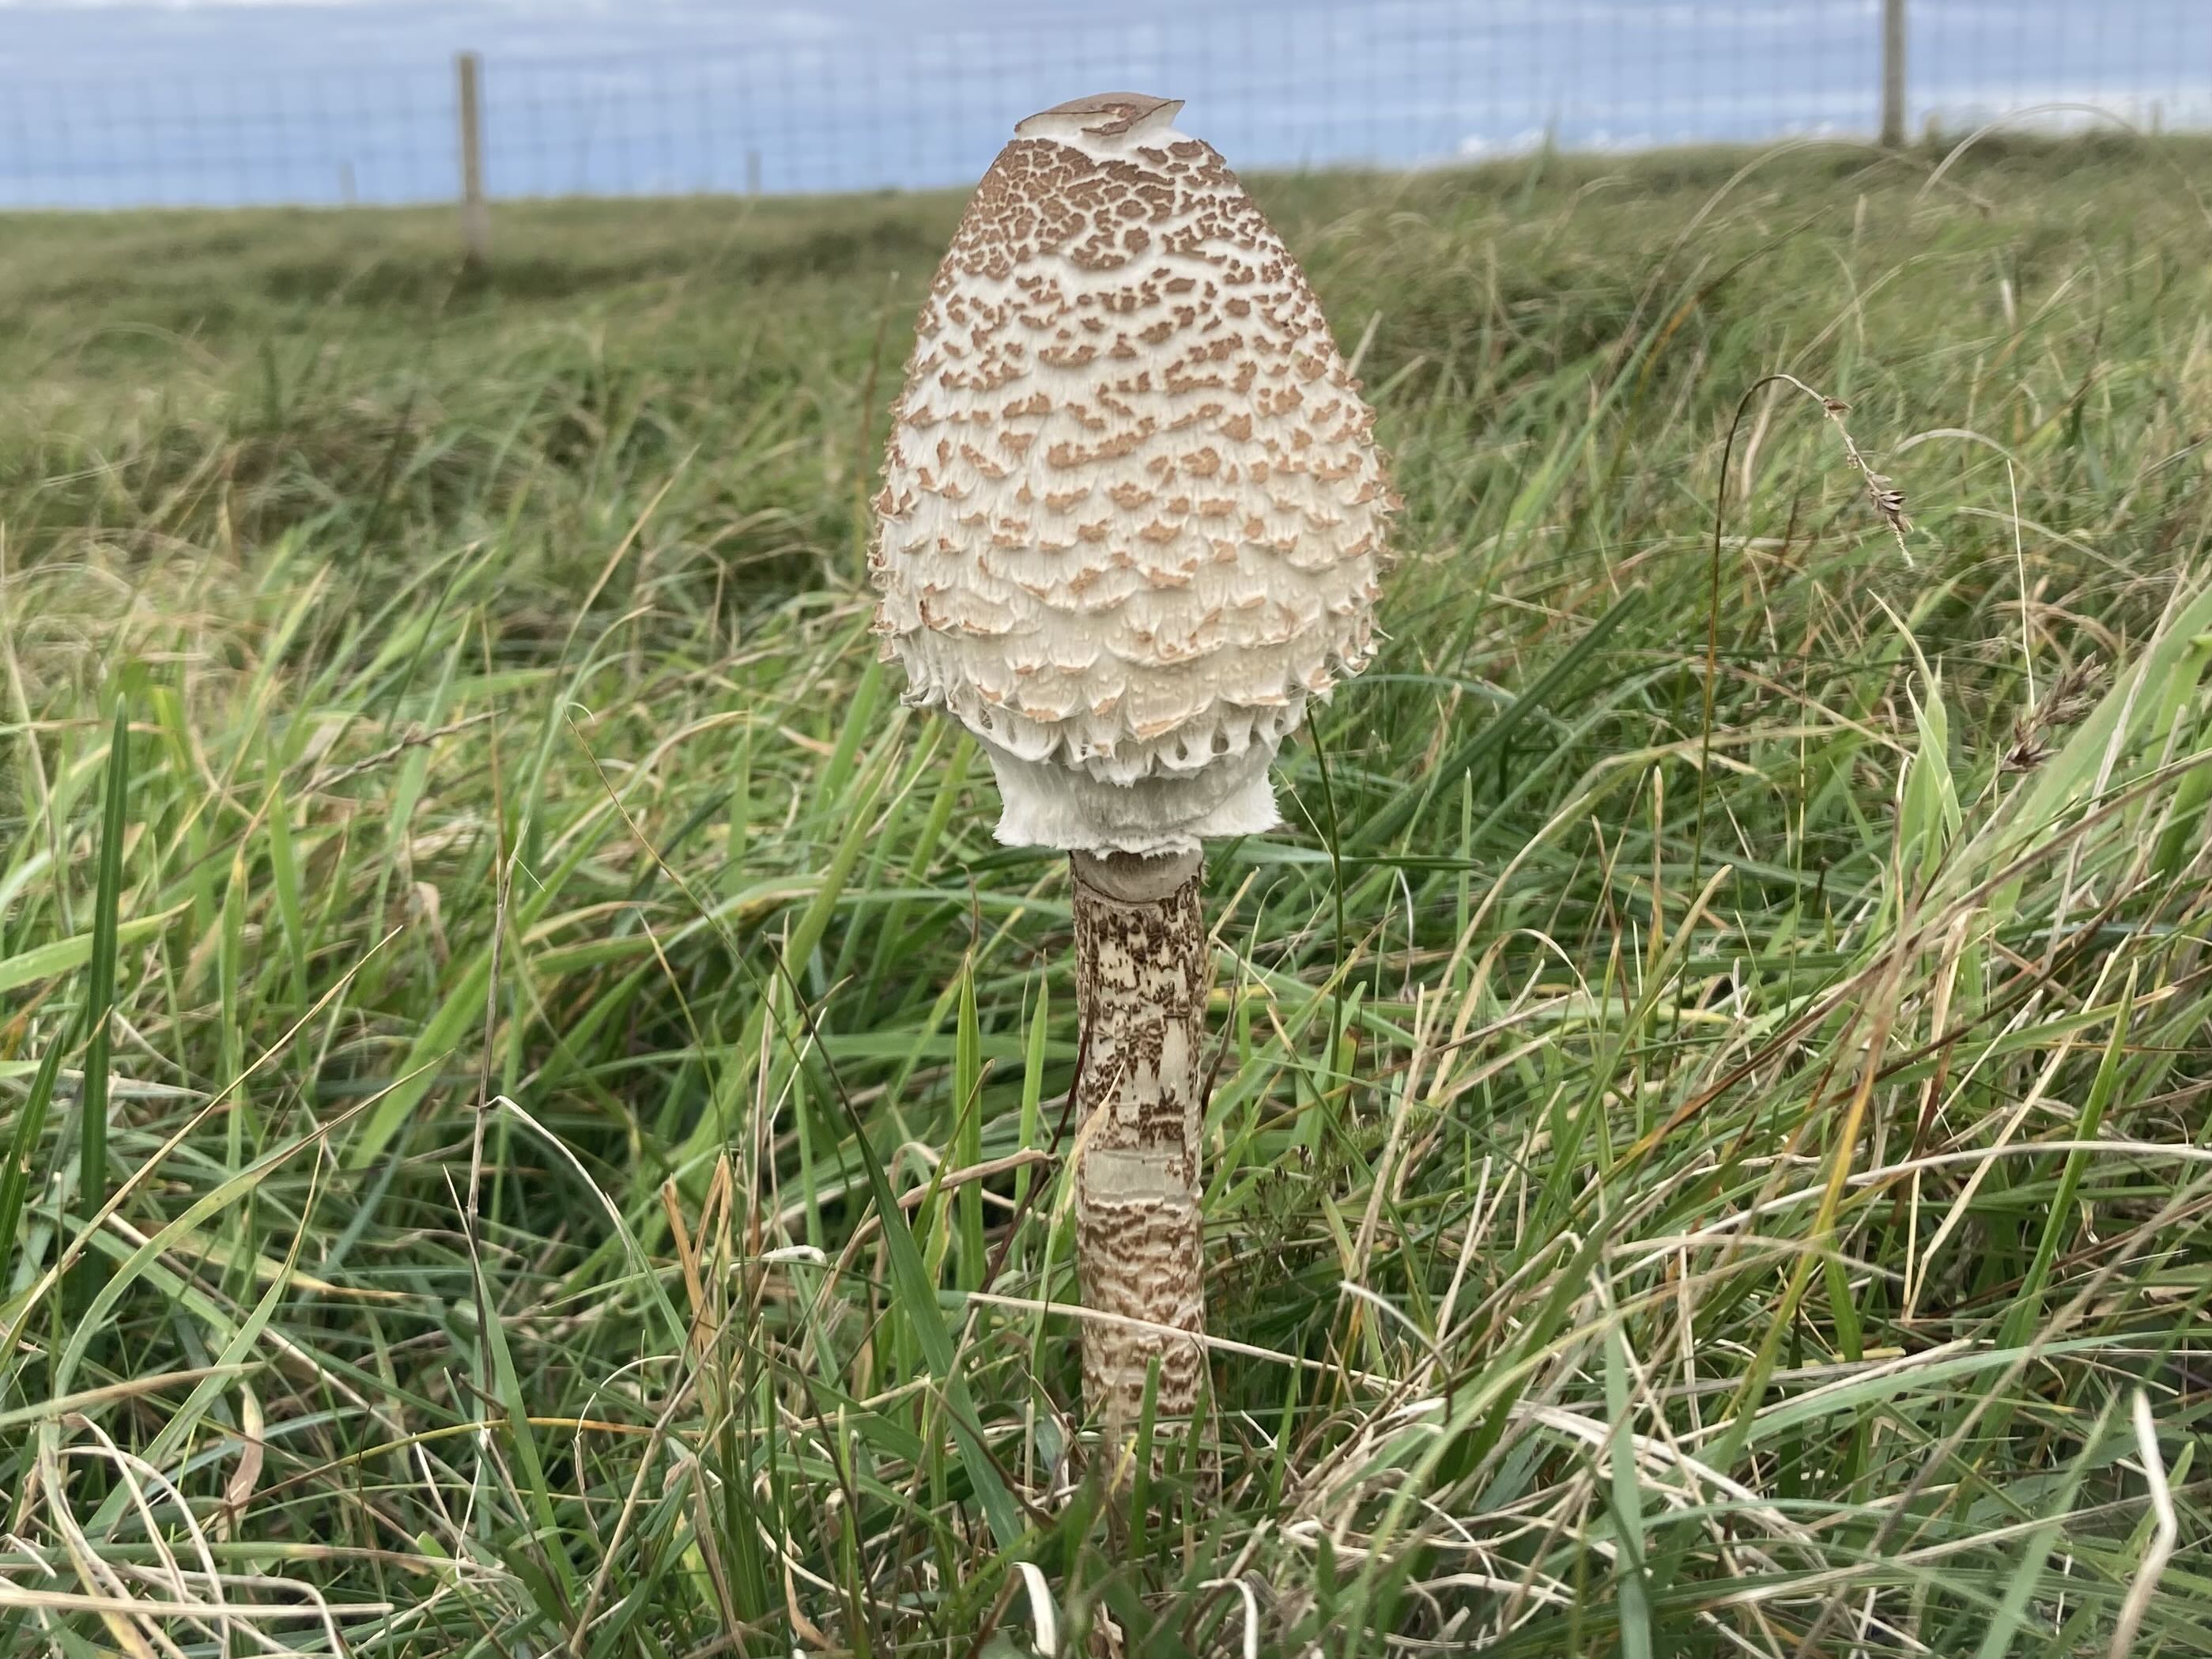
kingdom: Fungi
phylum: Basidiomycota
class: Agaricomycetes
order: Agaricales
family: Agaricaceae
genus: Macrolepiota
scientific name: Macrolepiota procera
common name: stor kæmpeparasolhat
